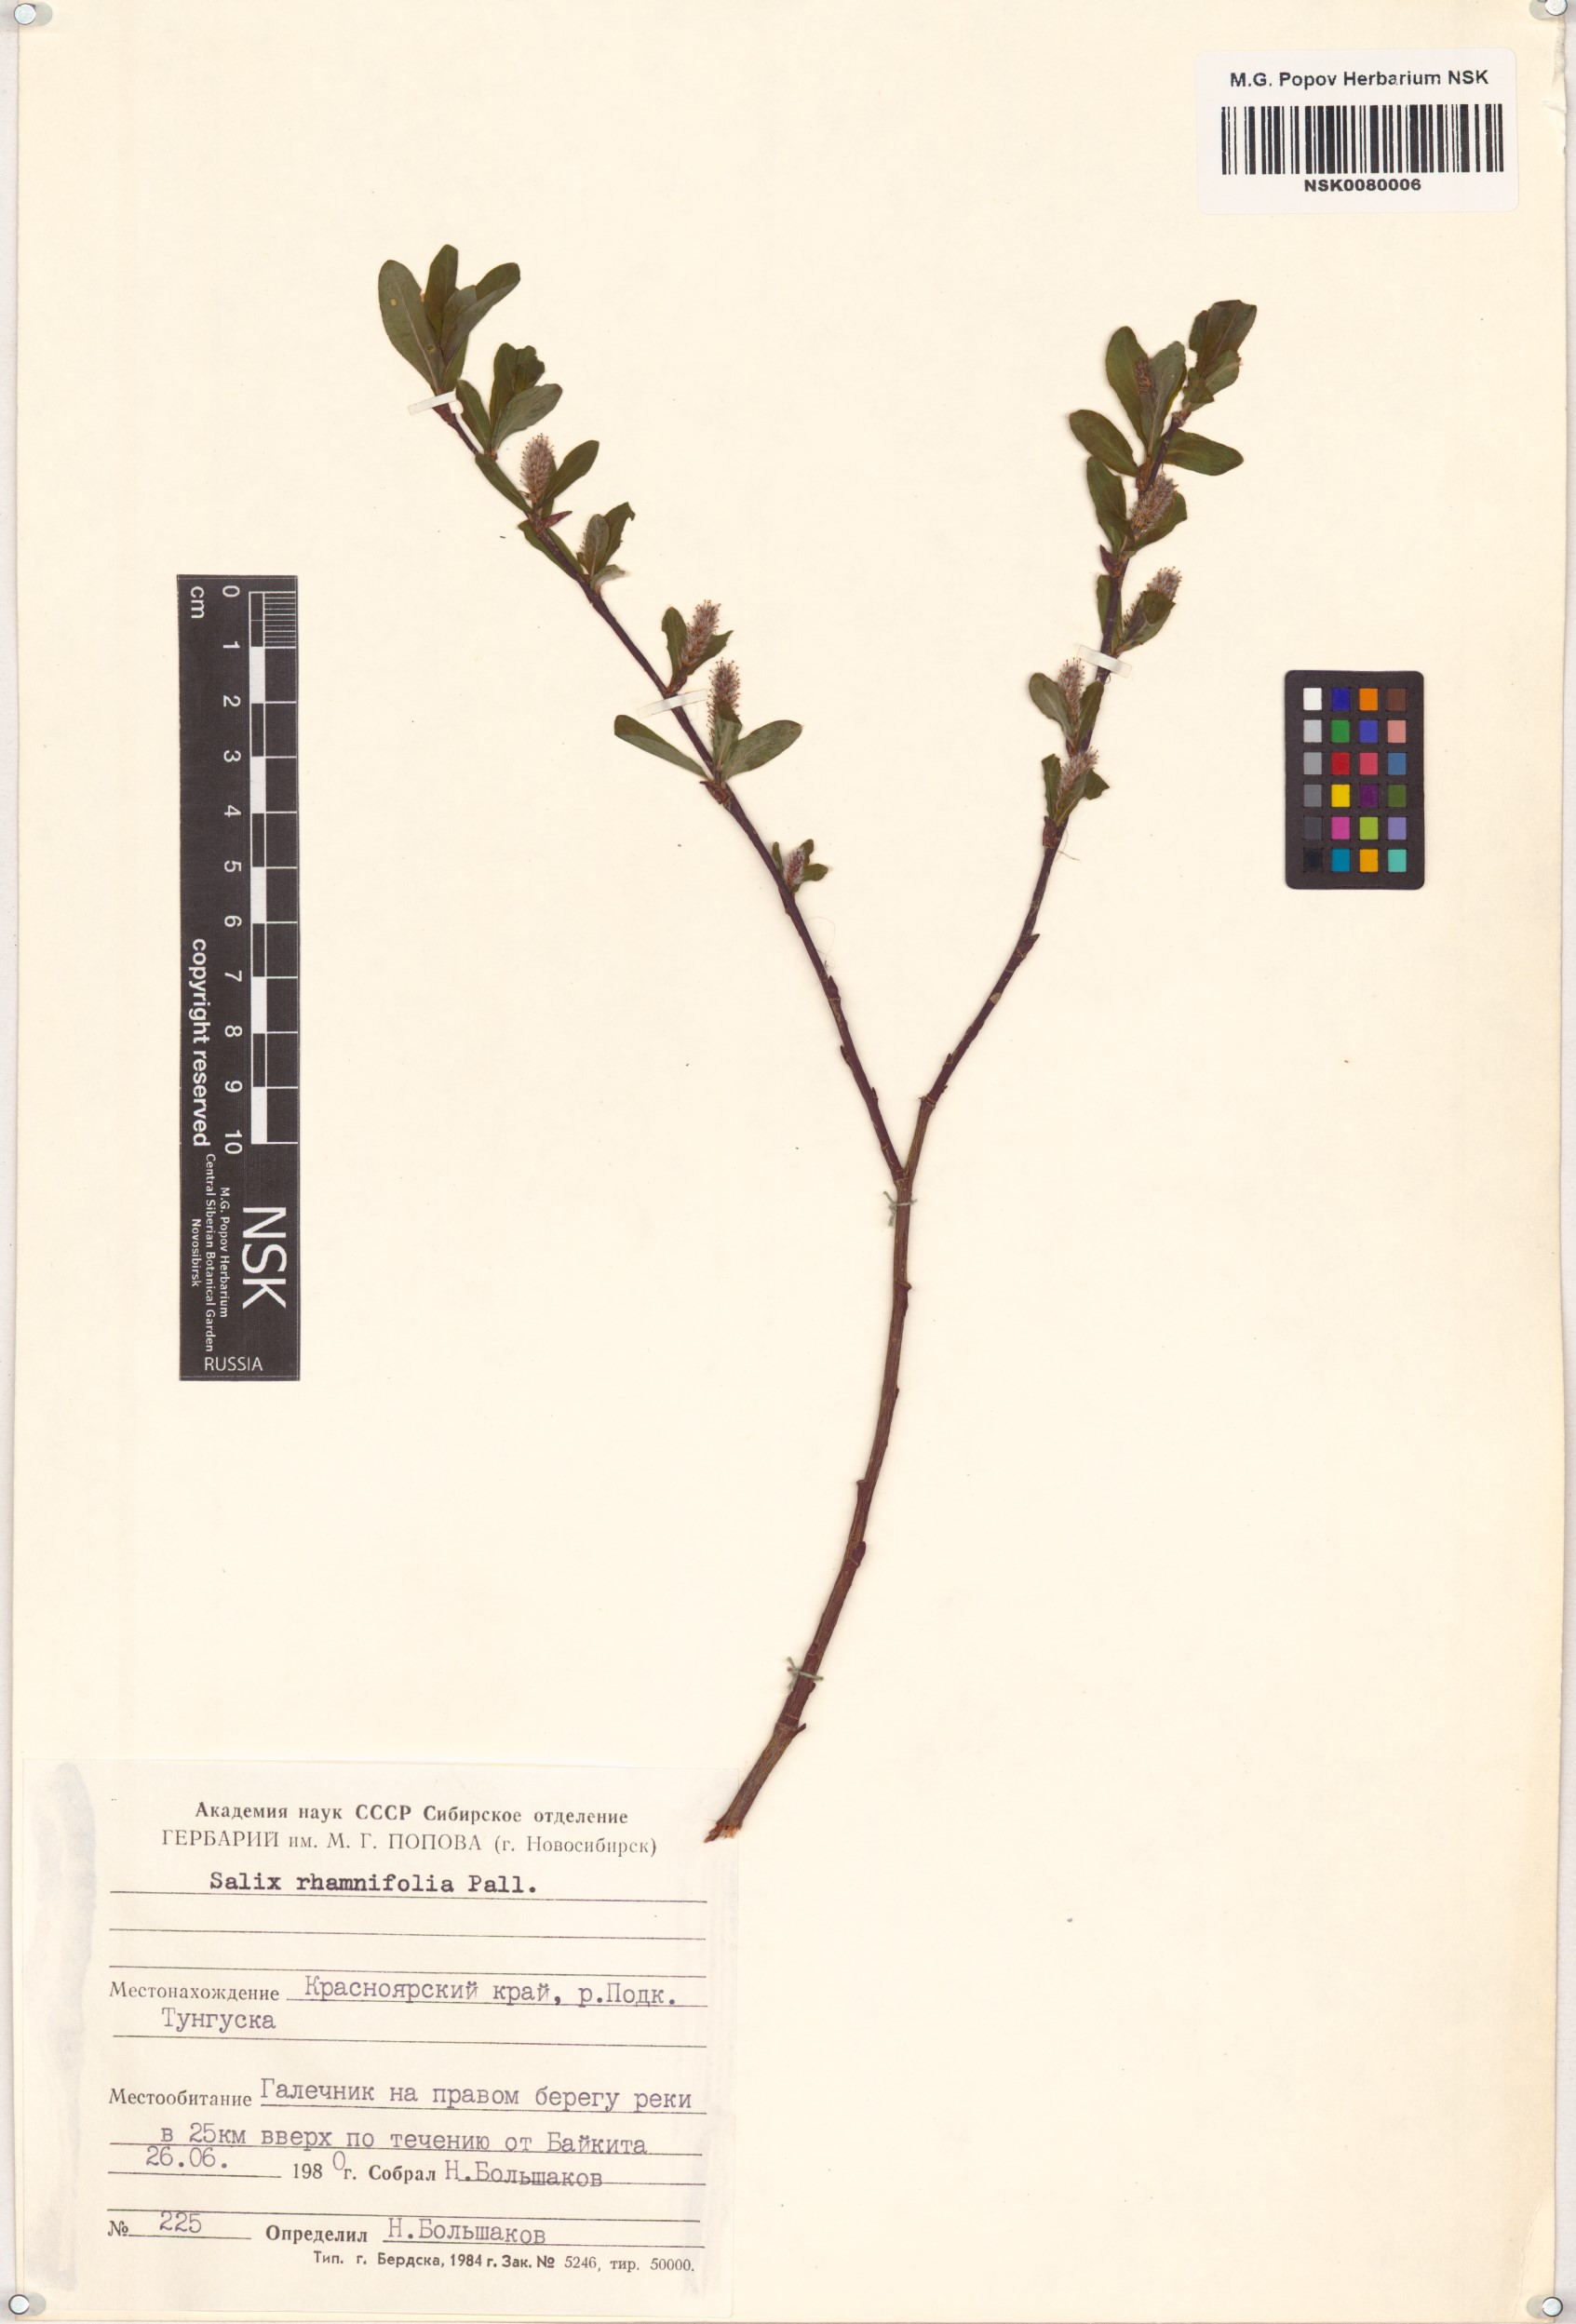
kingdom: Plantae
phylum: Tracheophyta
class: Magnoliopsida
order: Malpighiales
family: Salicaceae
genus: Salix
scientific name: Salix rhamnifolia
